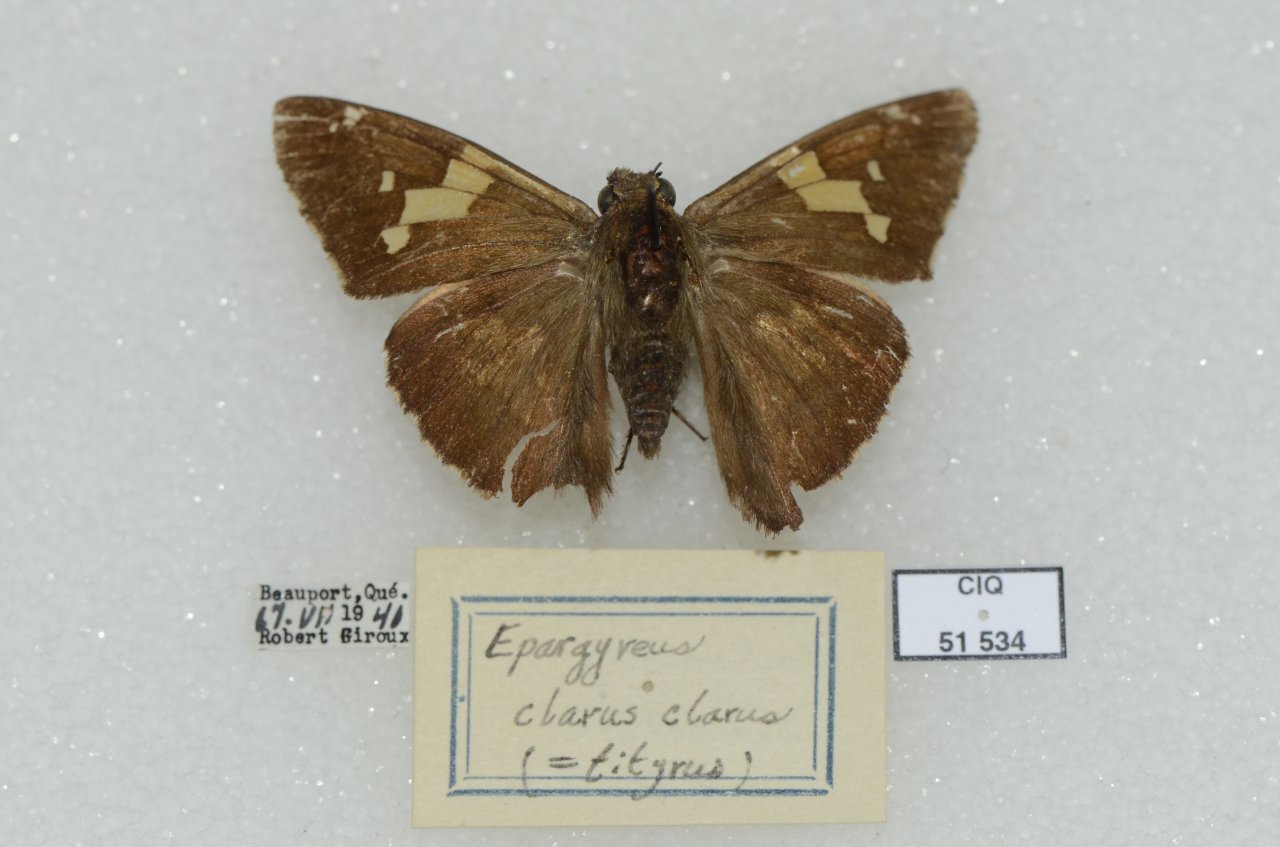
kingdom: Animalia
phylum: Arthropoda
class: Insecta
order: Lepidoptera
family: Hesperiidae
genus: Epargyreus
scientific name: Epargyreus clarus
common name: Silver-spotted Skipper
